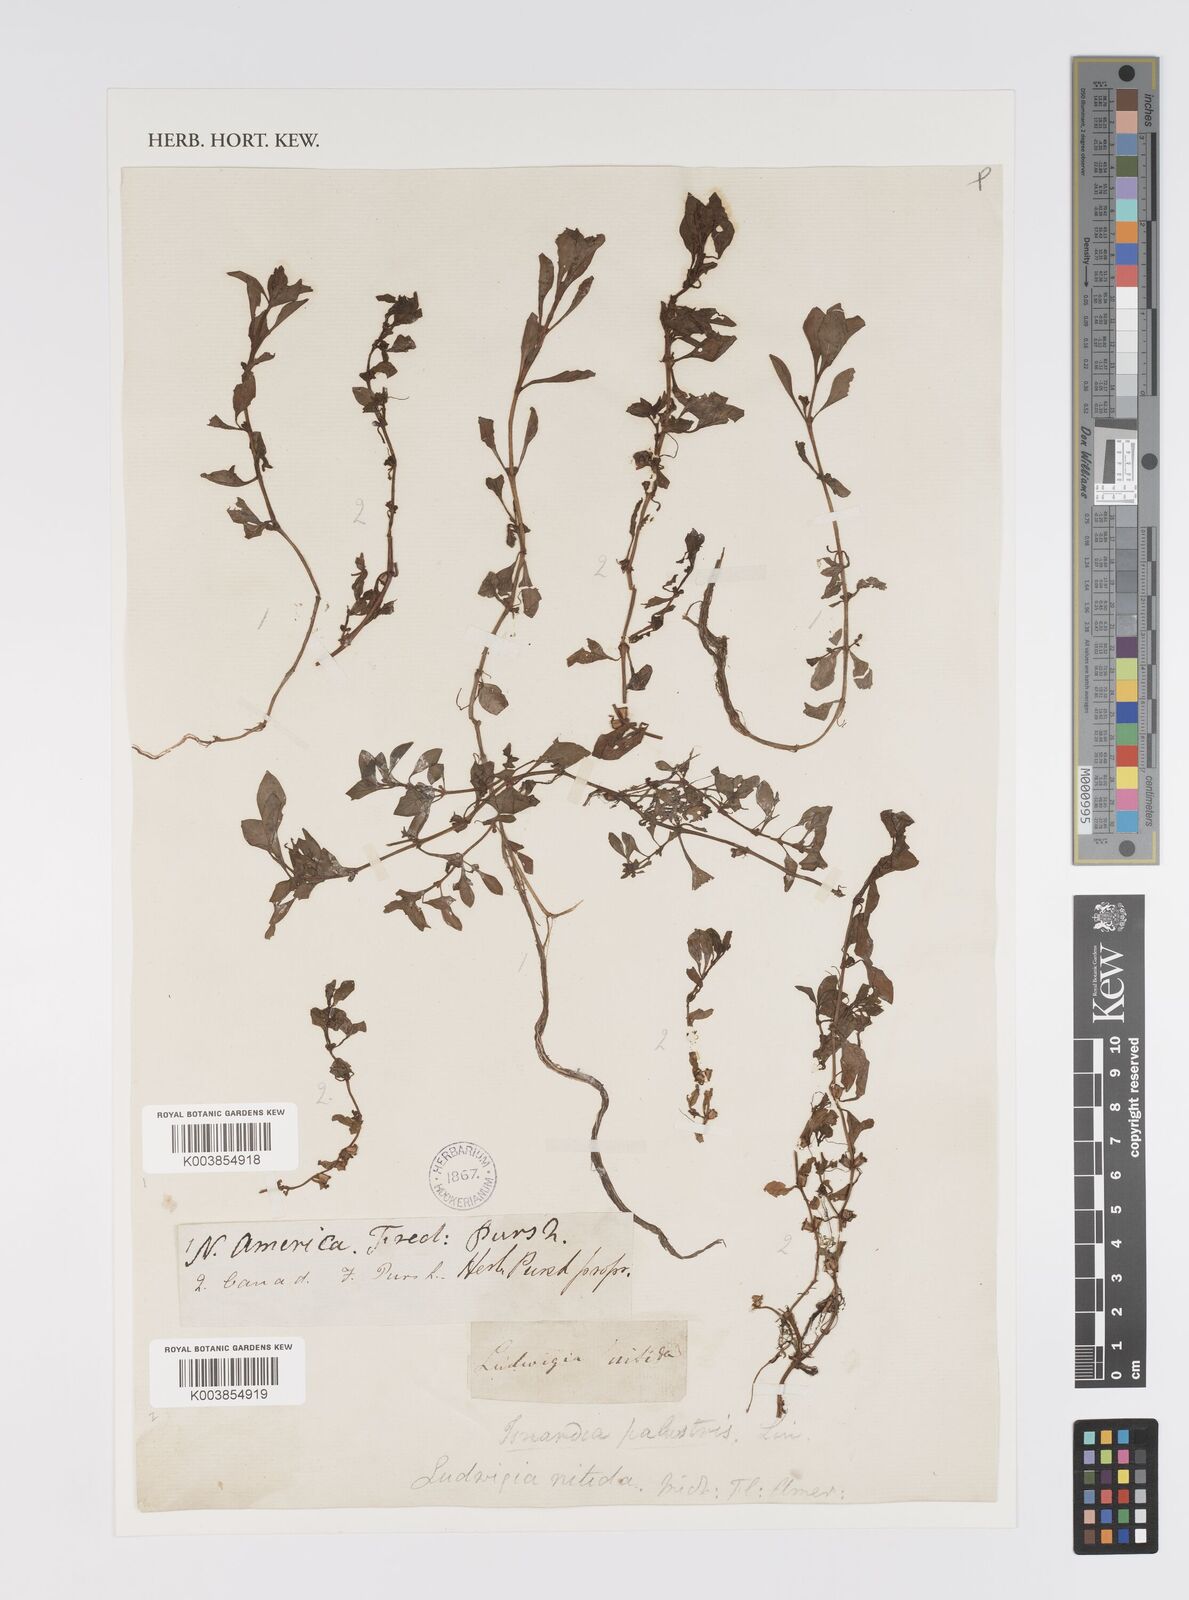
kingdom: Plantae
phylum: Tracheophyta
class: Magnoliopsida
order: Myrtales
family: Onagraceae
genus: Ludwigia
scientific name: Ludwigia palustris
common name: Hampshire-purslane
